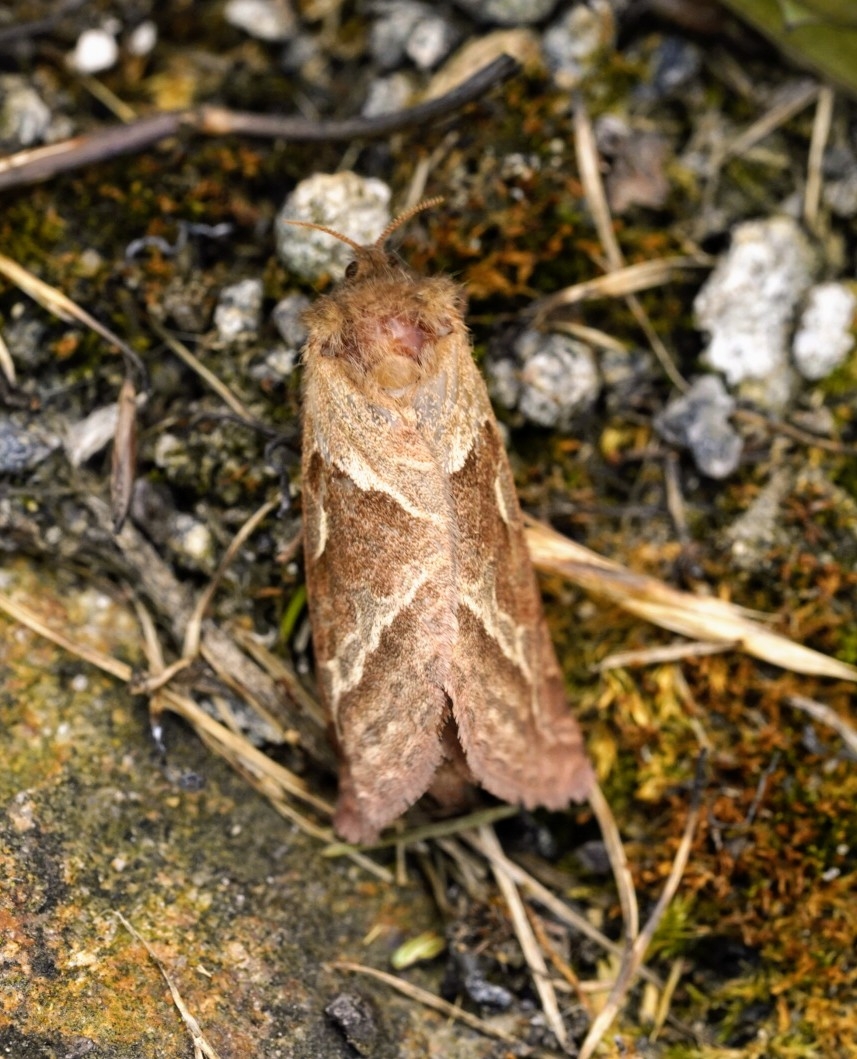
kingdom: Animalia
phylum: Arthropoda
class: Insecta
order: Lepidoptera
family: Hepialidae
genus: Triodia
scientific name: Triodia sylvina
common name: Skræpperodæder
